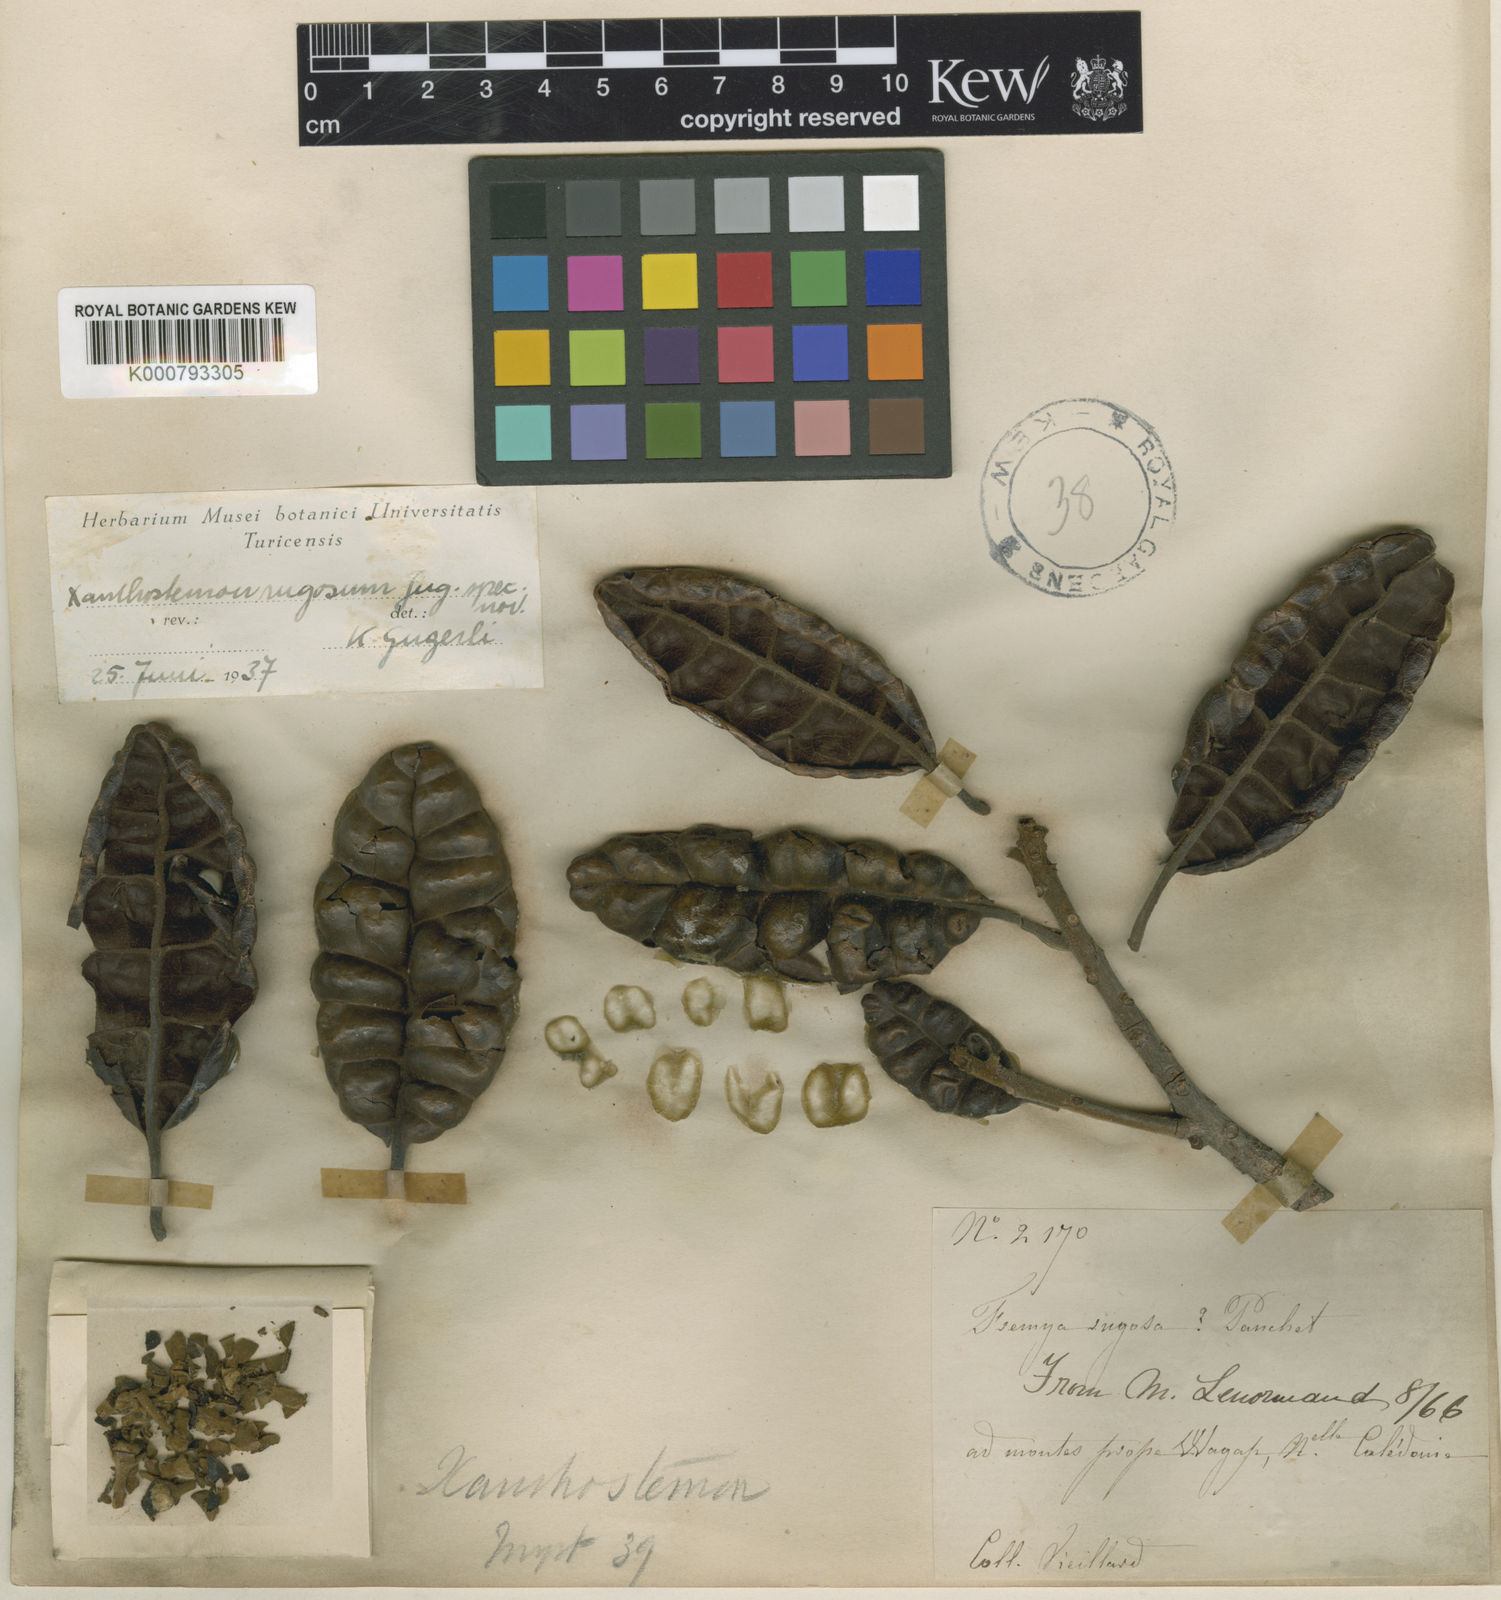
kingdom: Plantae
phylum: Tracheophyta
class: Magnoliopsida
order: Myrtales
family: Myrtaceae
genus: Xanthostemon
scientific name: Xanthostemon
